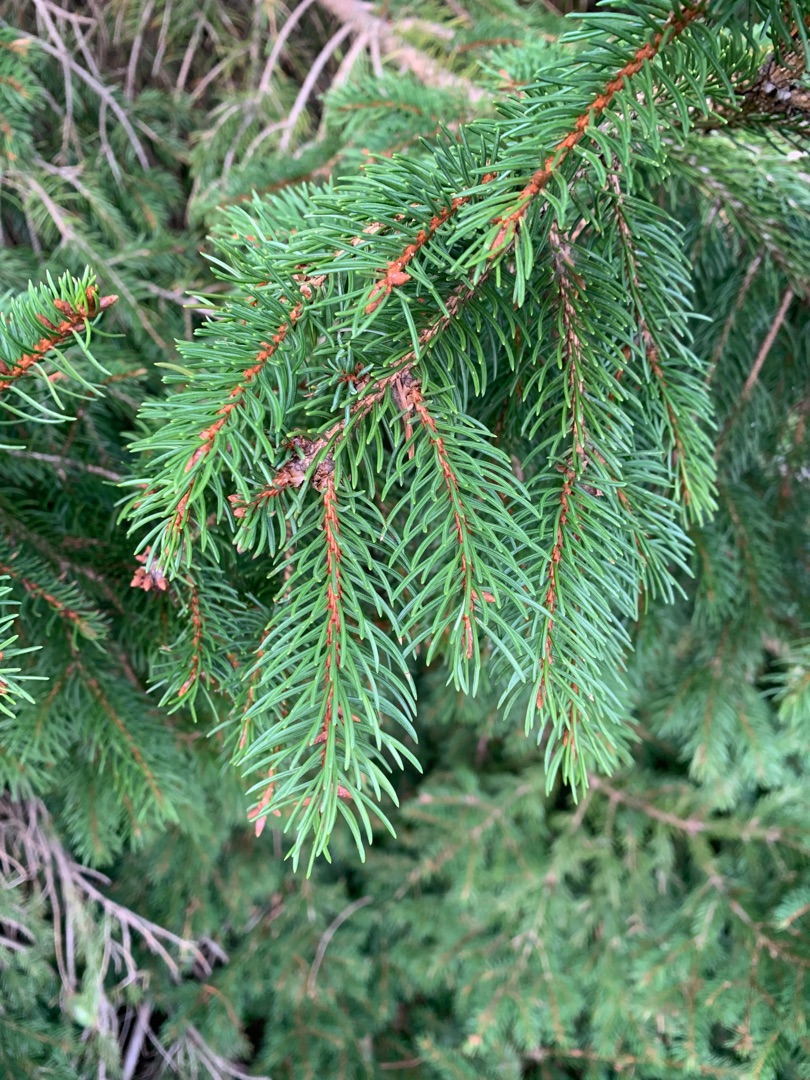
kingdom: Plantae
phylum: Tracheophyta
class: Pinopsida
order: Pinales
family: Pinaceae
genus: Picea
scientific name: Picea abies
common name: Rød-gran
